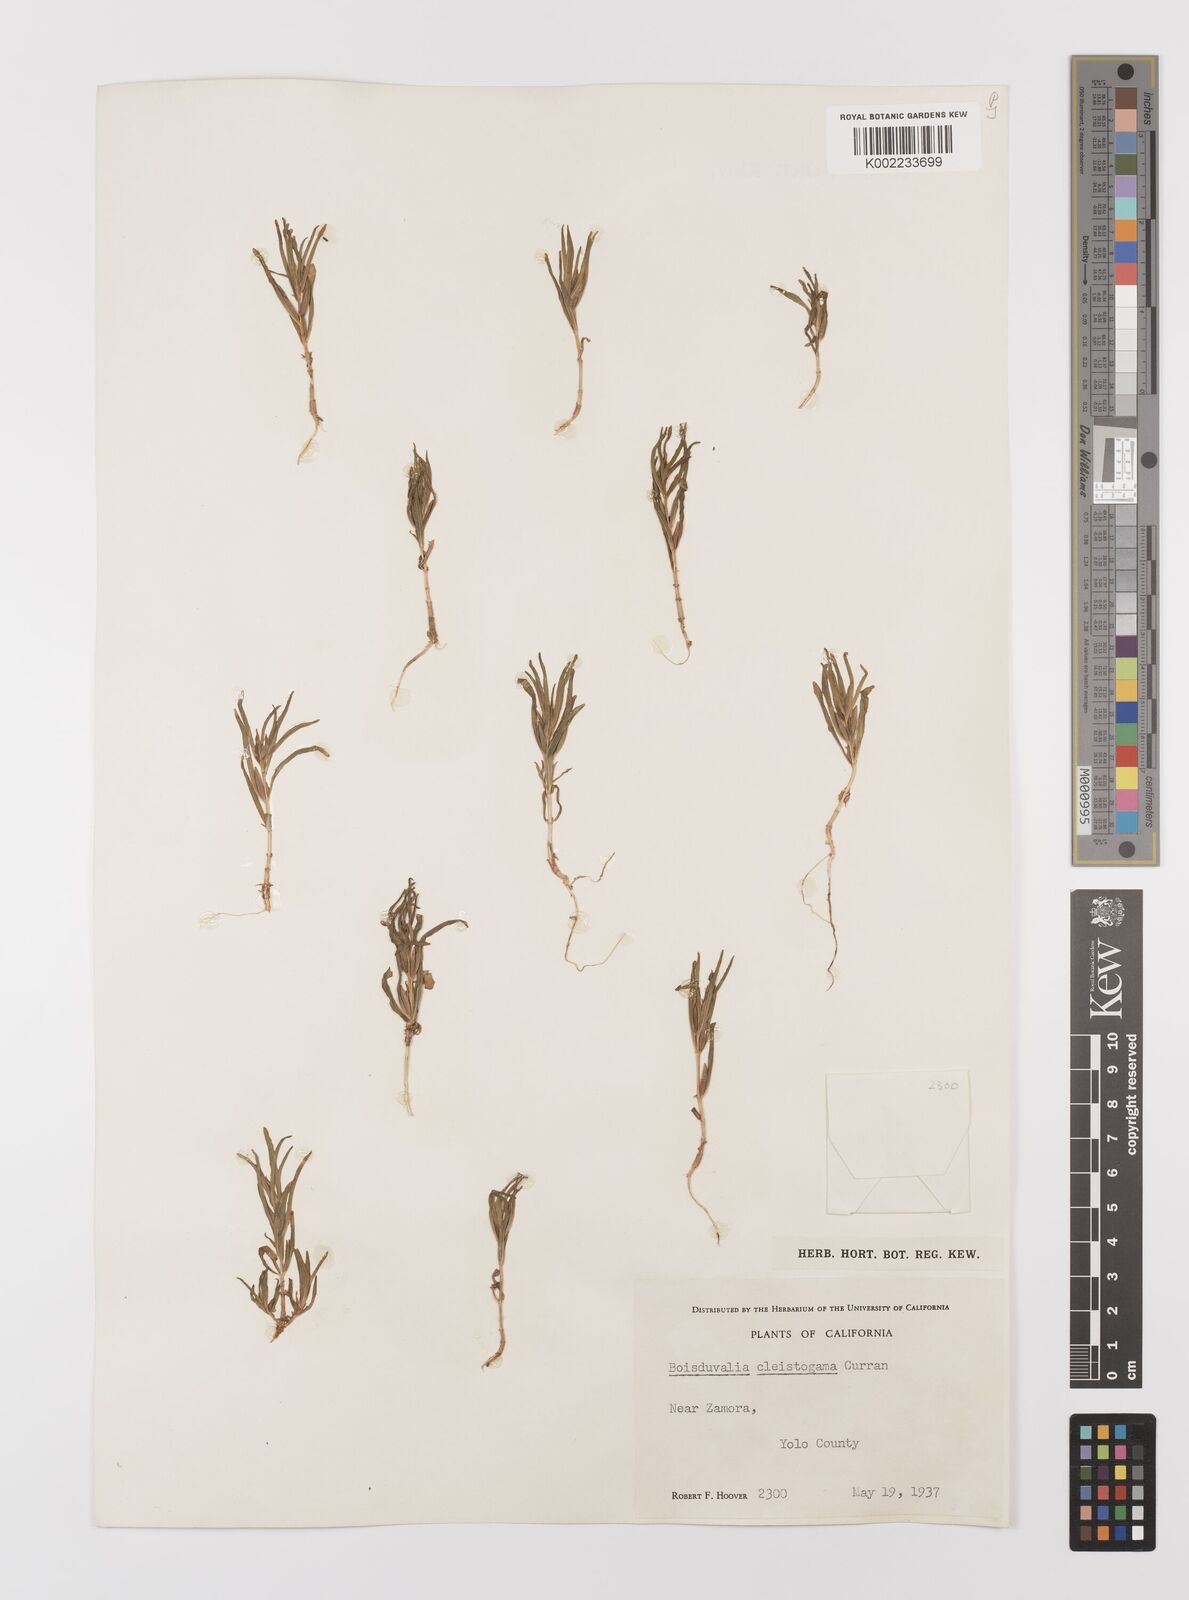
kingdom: Plantae
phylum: Tracheophyta
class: Magnoliopsida
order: Myrtales
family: Onagraceae
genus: Epilobium
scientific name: Epilobium cleistogamum
